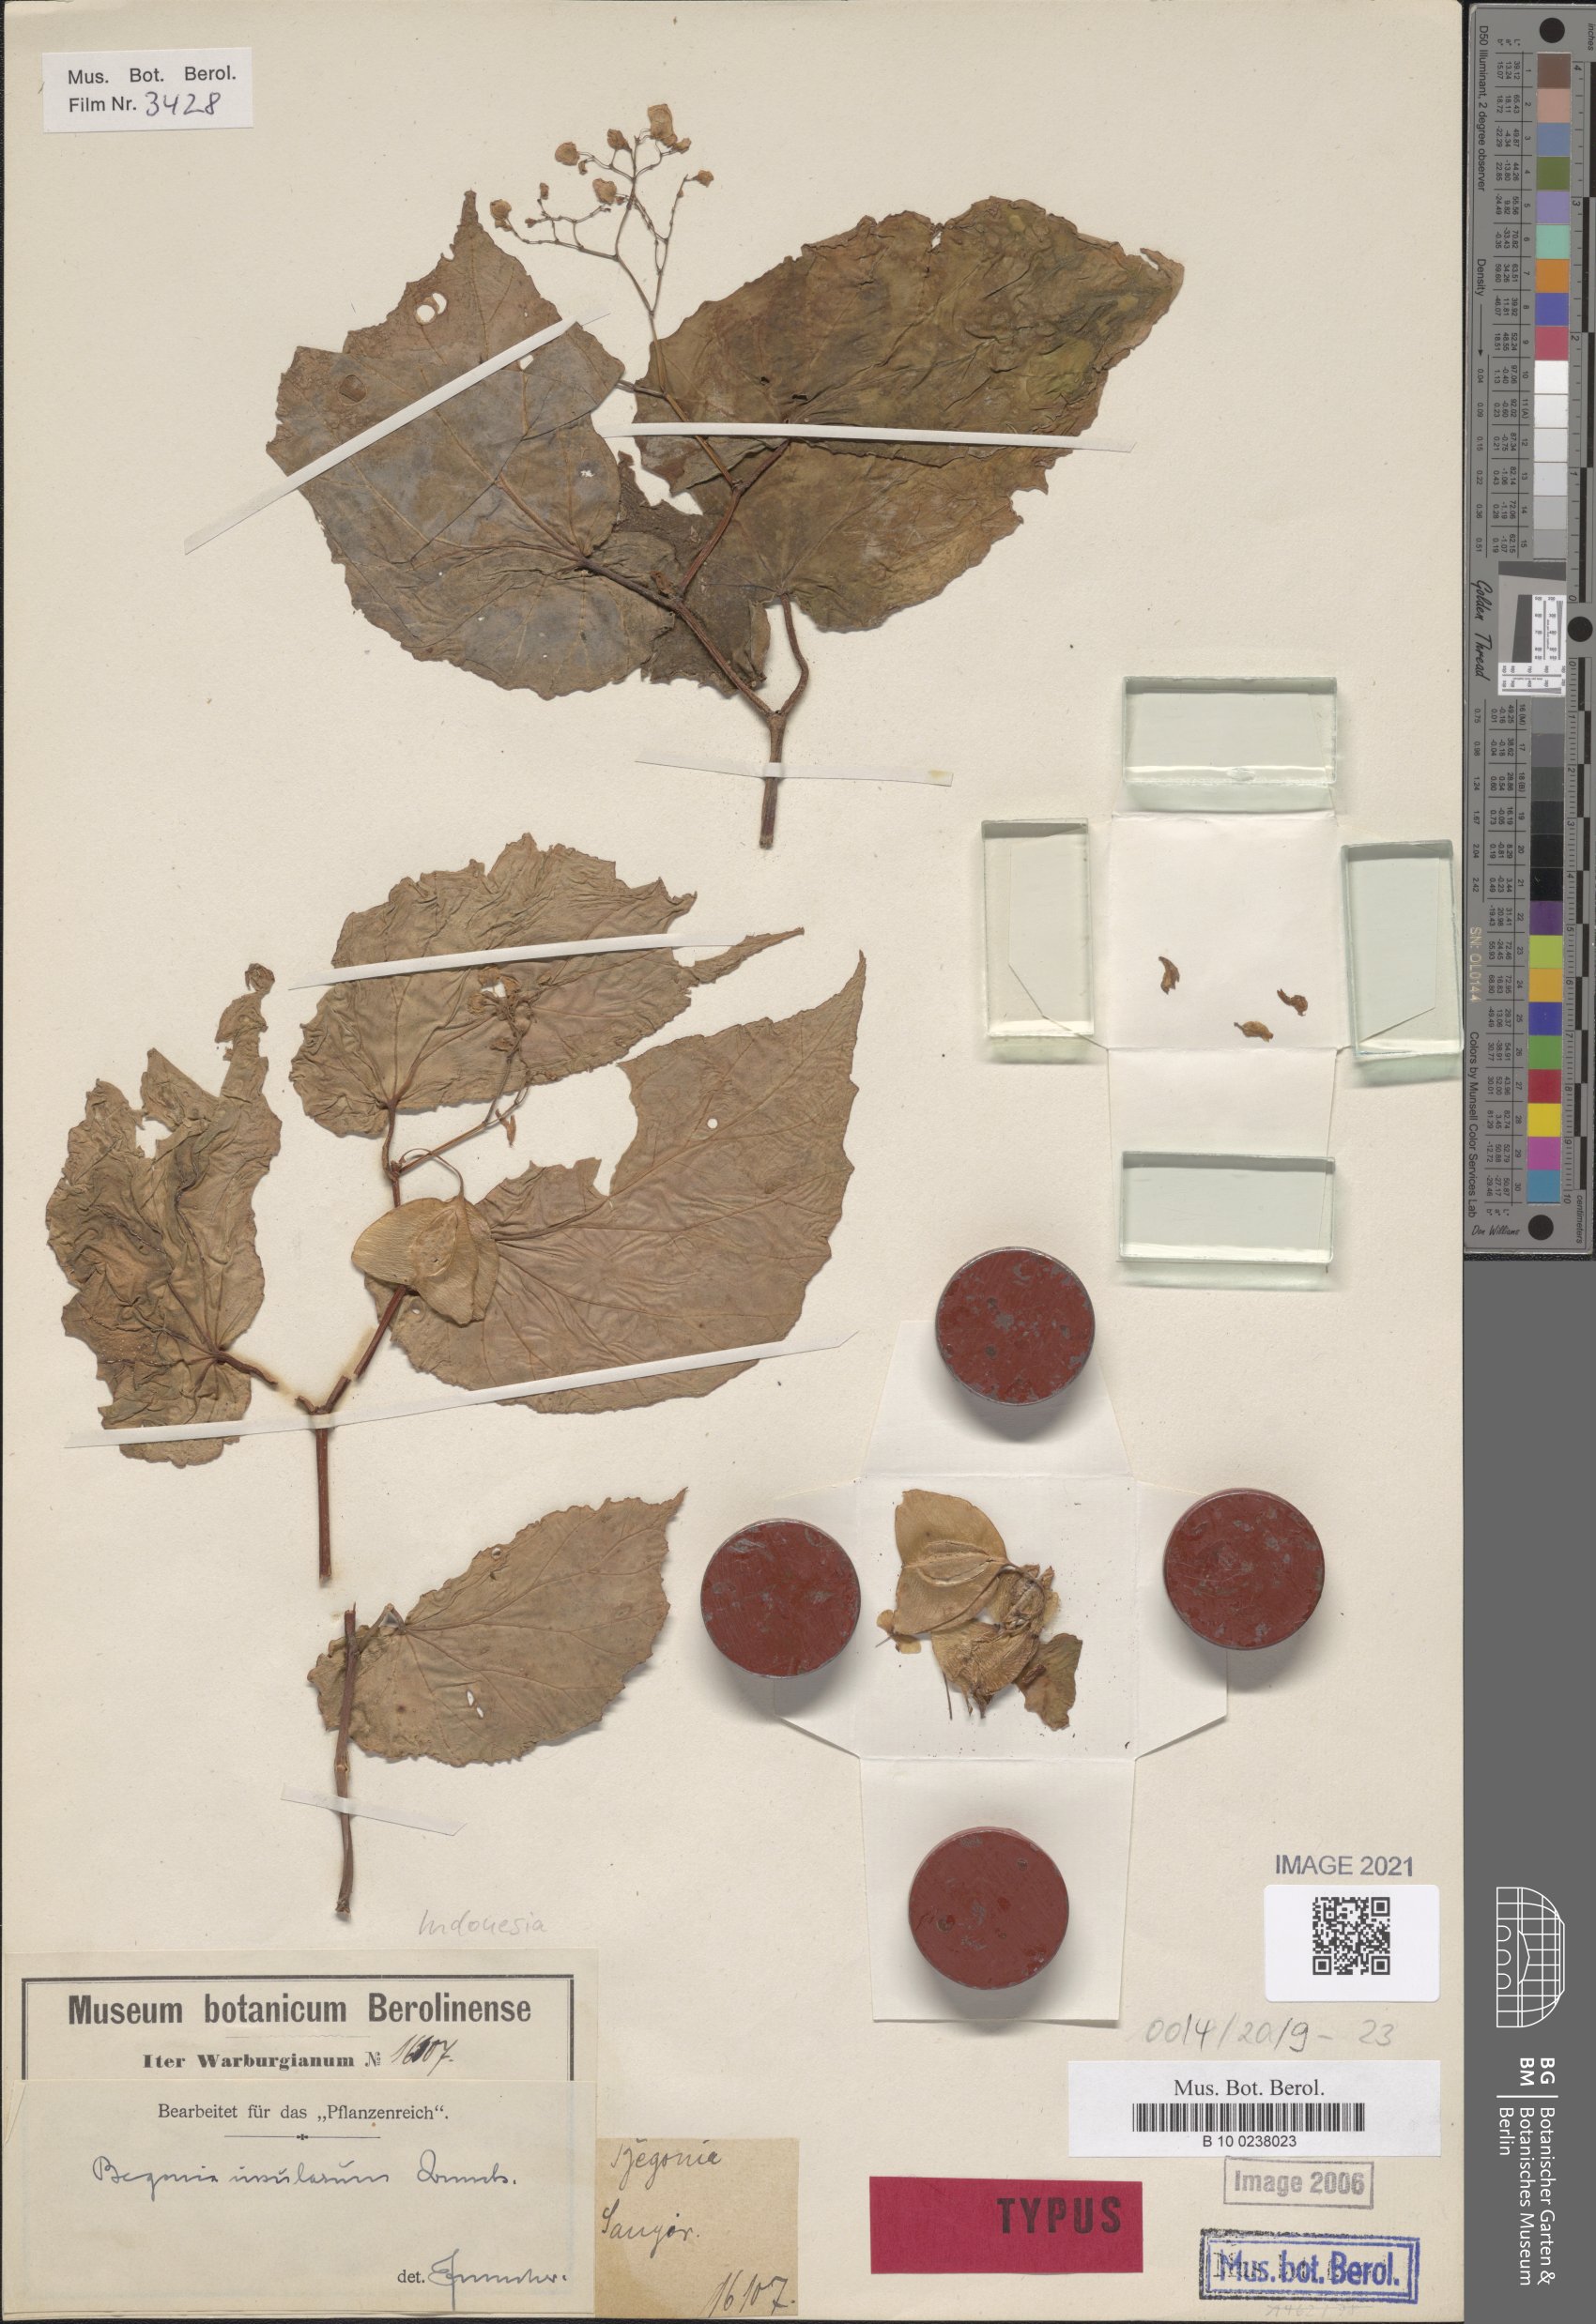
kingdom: Plantae
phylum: Tracheophyta
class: Magnoliopsida
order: Cucurbitales
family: Begoniaceae
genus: Begonia
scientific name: Begonia insularum
